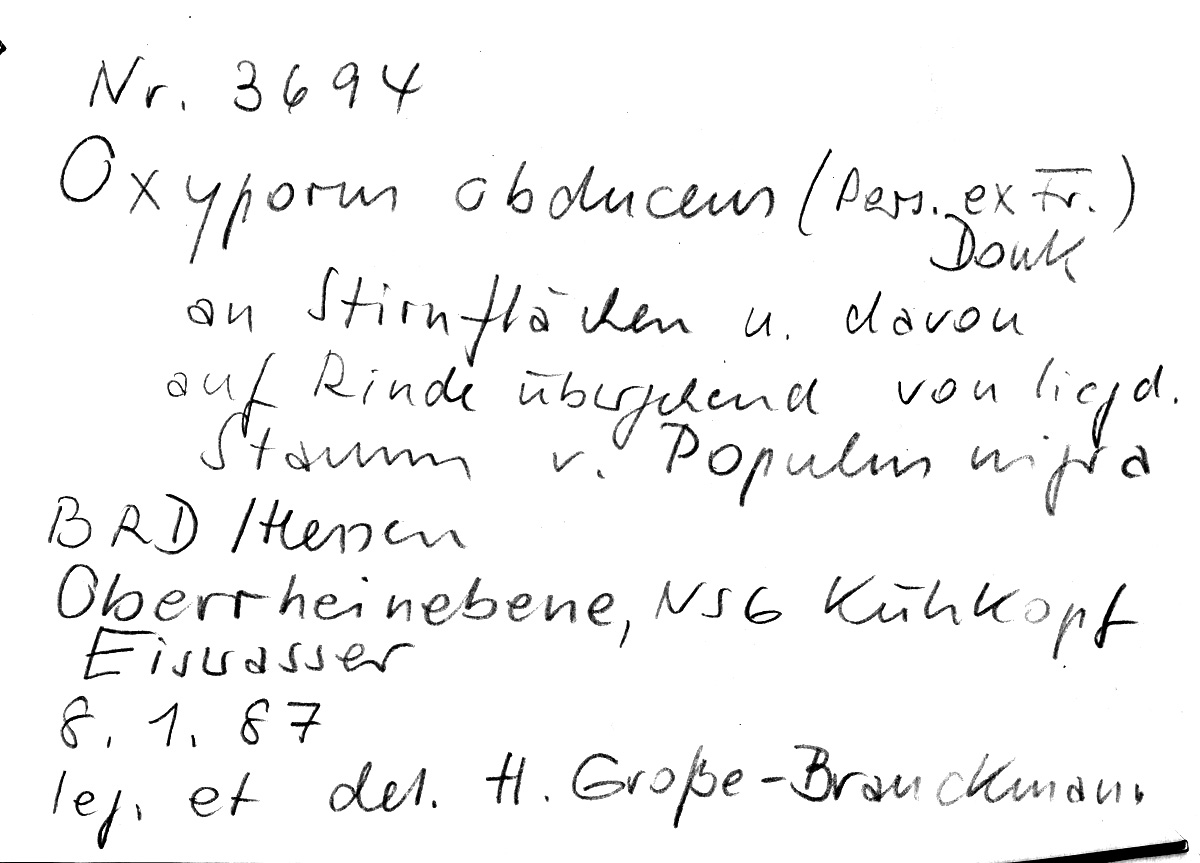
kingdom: Plantae
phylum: Tracheophyta
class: Magnoliopsida
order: Malpighiales
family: Salicaceae
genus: Populus
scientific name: Populus nigra
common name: Black poplar
